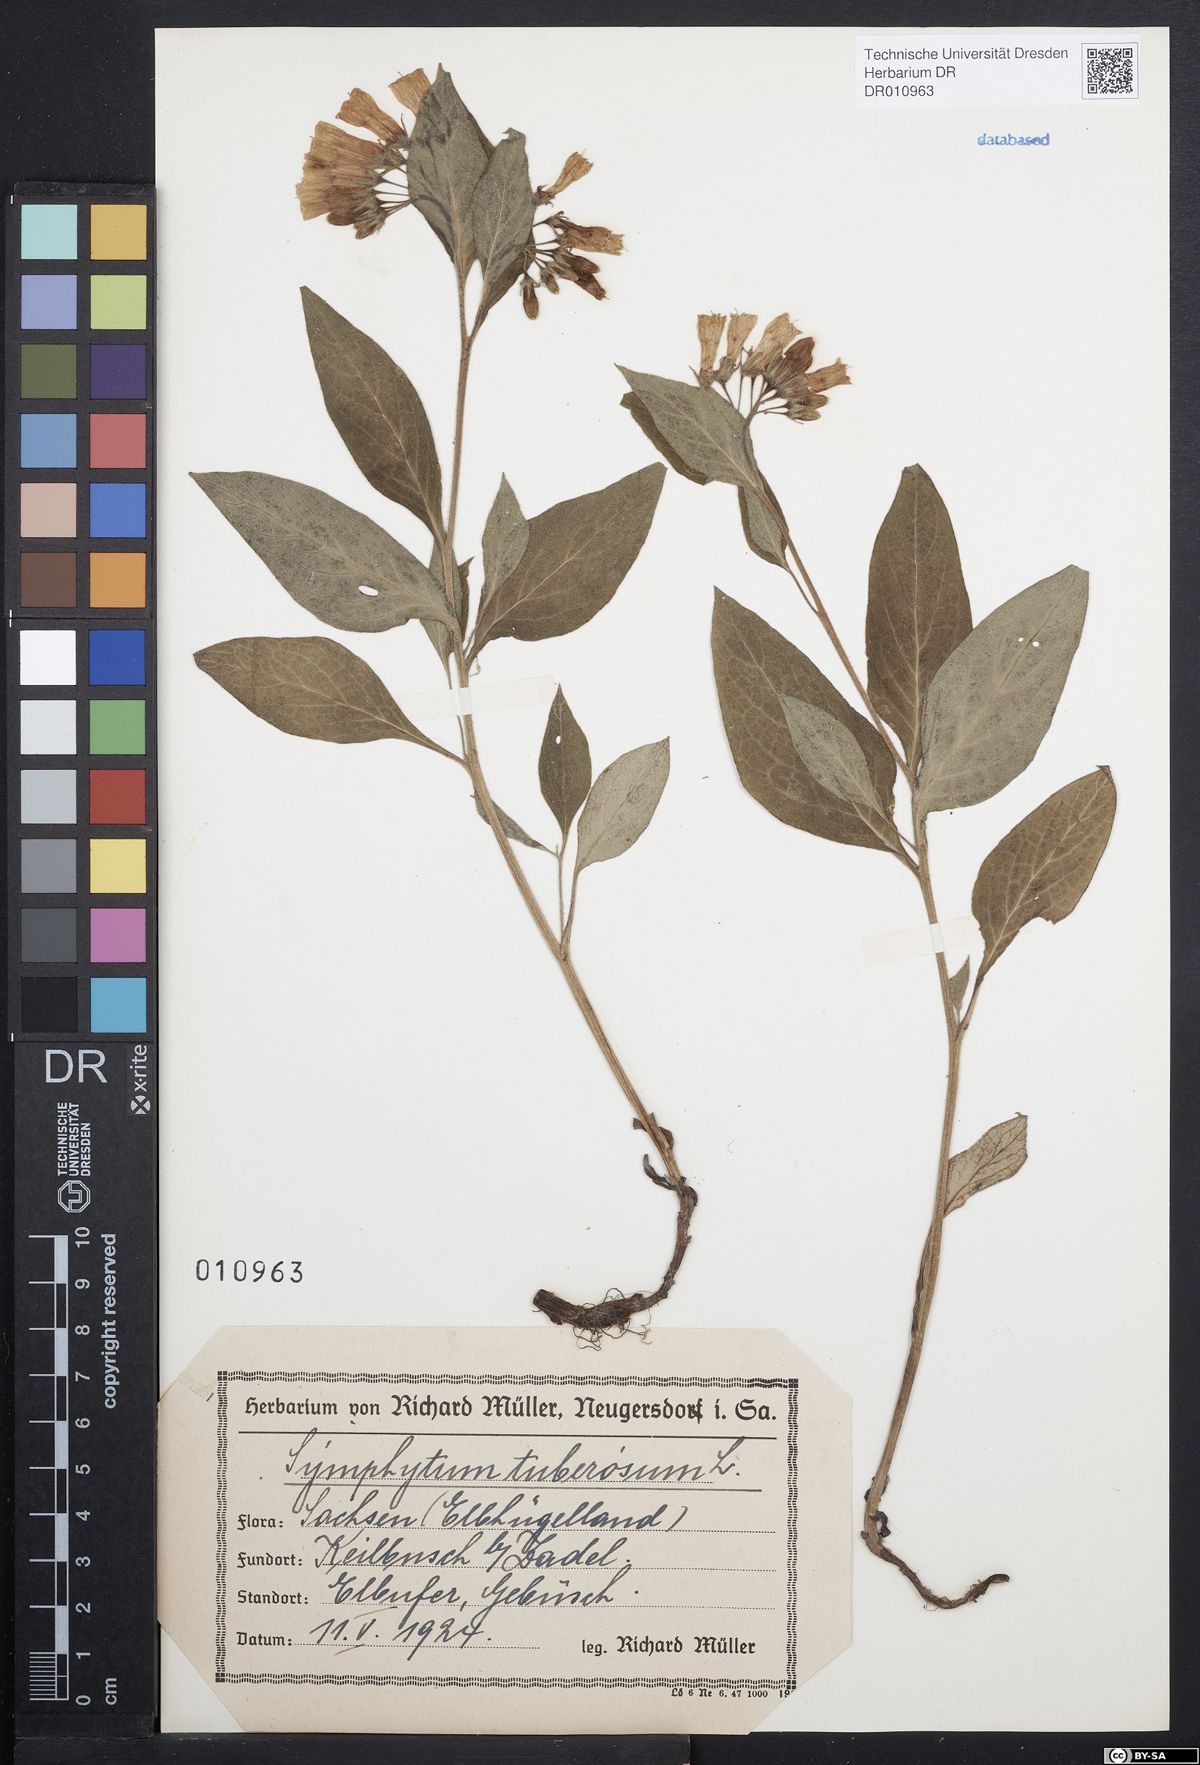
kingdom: Plantae
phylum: Tracheophyta
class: Magnoliopsida
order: Boraginales
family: Boraginaceae
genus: Symphytum
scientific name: Symphytum tuberosum
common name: Tuberous comfrey
